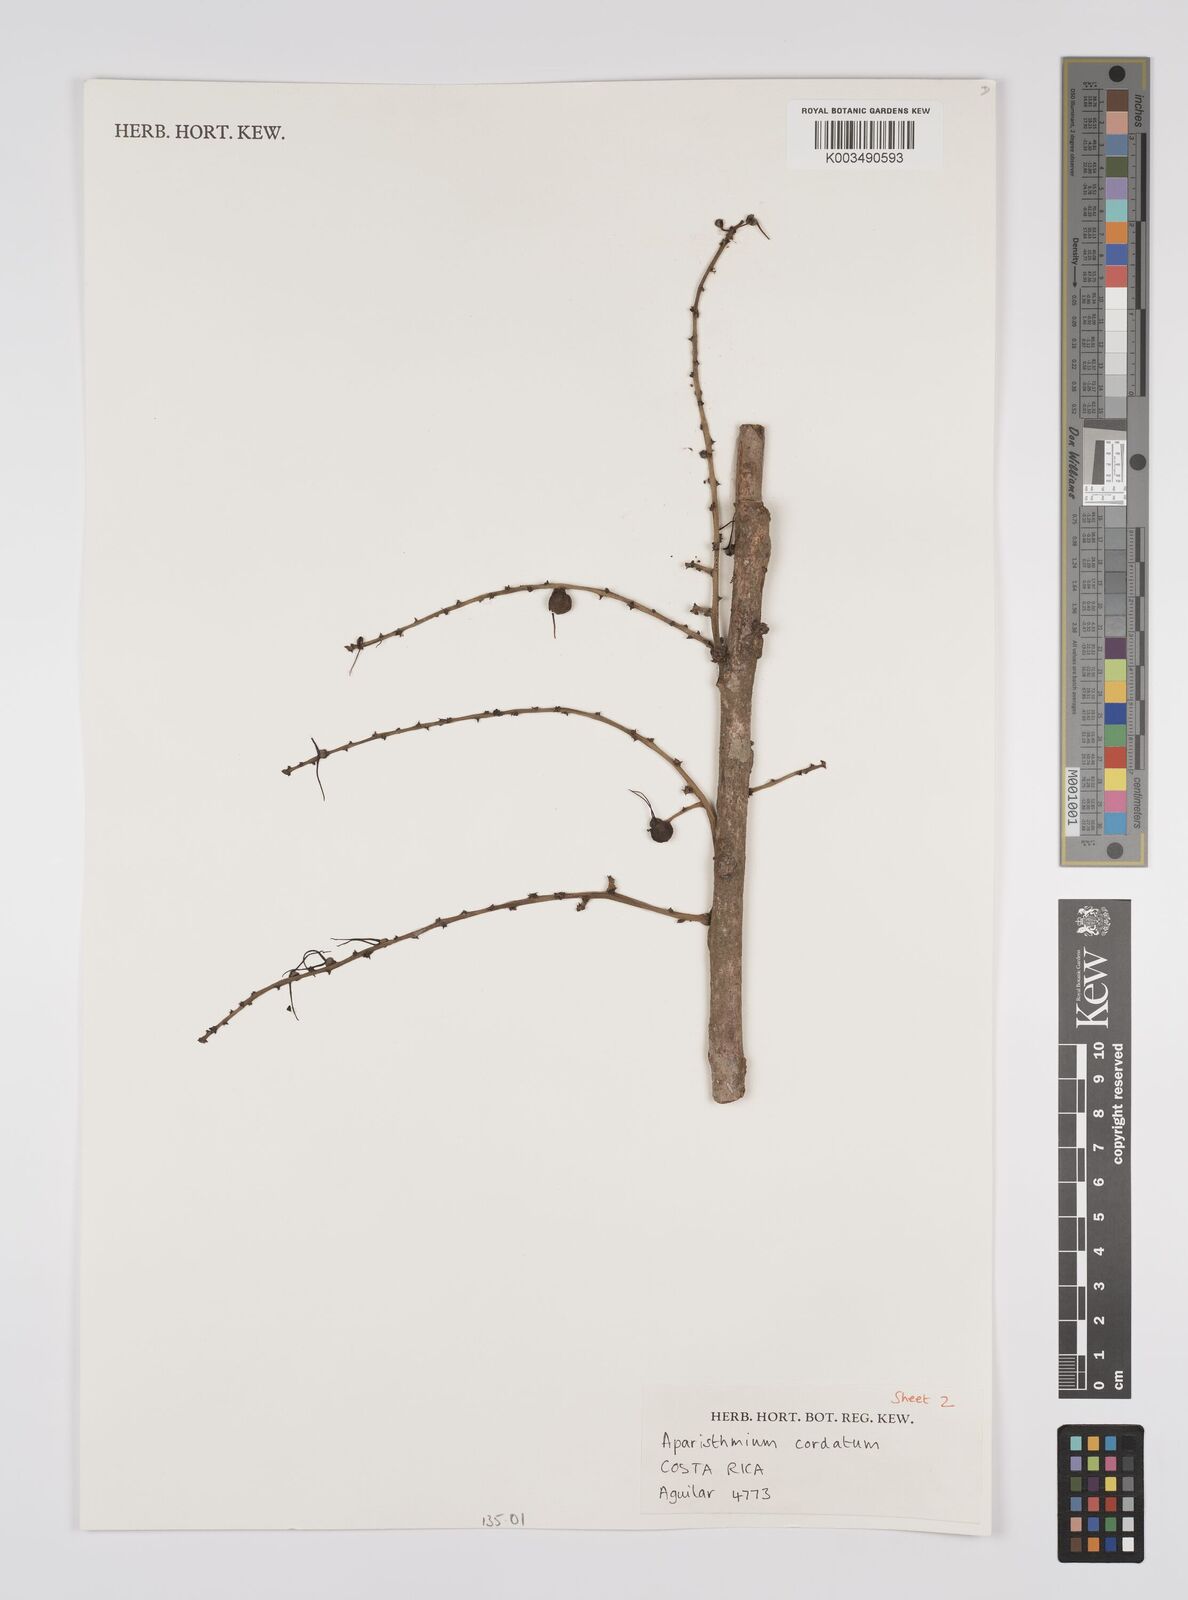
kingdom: Plantae
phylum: Tracheophyta
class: Magnoliopsida
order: Malpighiales
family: Euphorbiaceae
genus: Aparisthmium
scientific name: Aparisthmium cordatum
